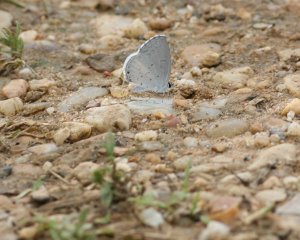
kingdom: Animalia
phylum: Arthropoda
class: Insecta
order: Lepidoptera
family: Lycaenidae
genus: Cyaniris
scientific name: Cyaniris neglecta
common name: Summer Azure
